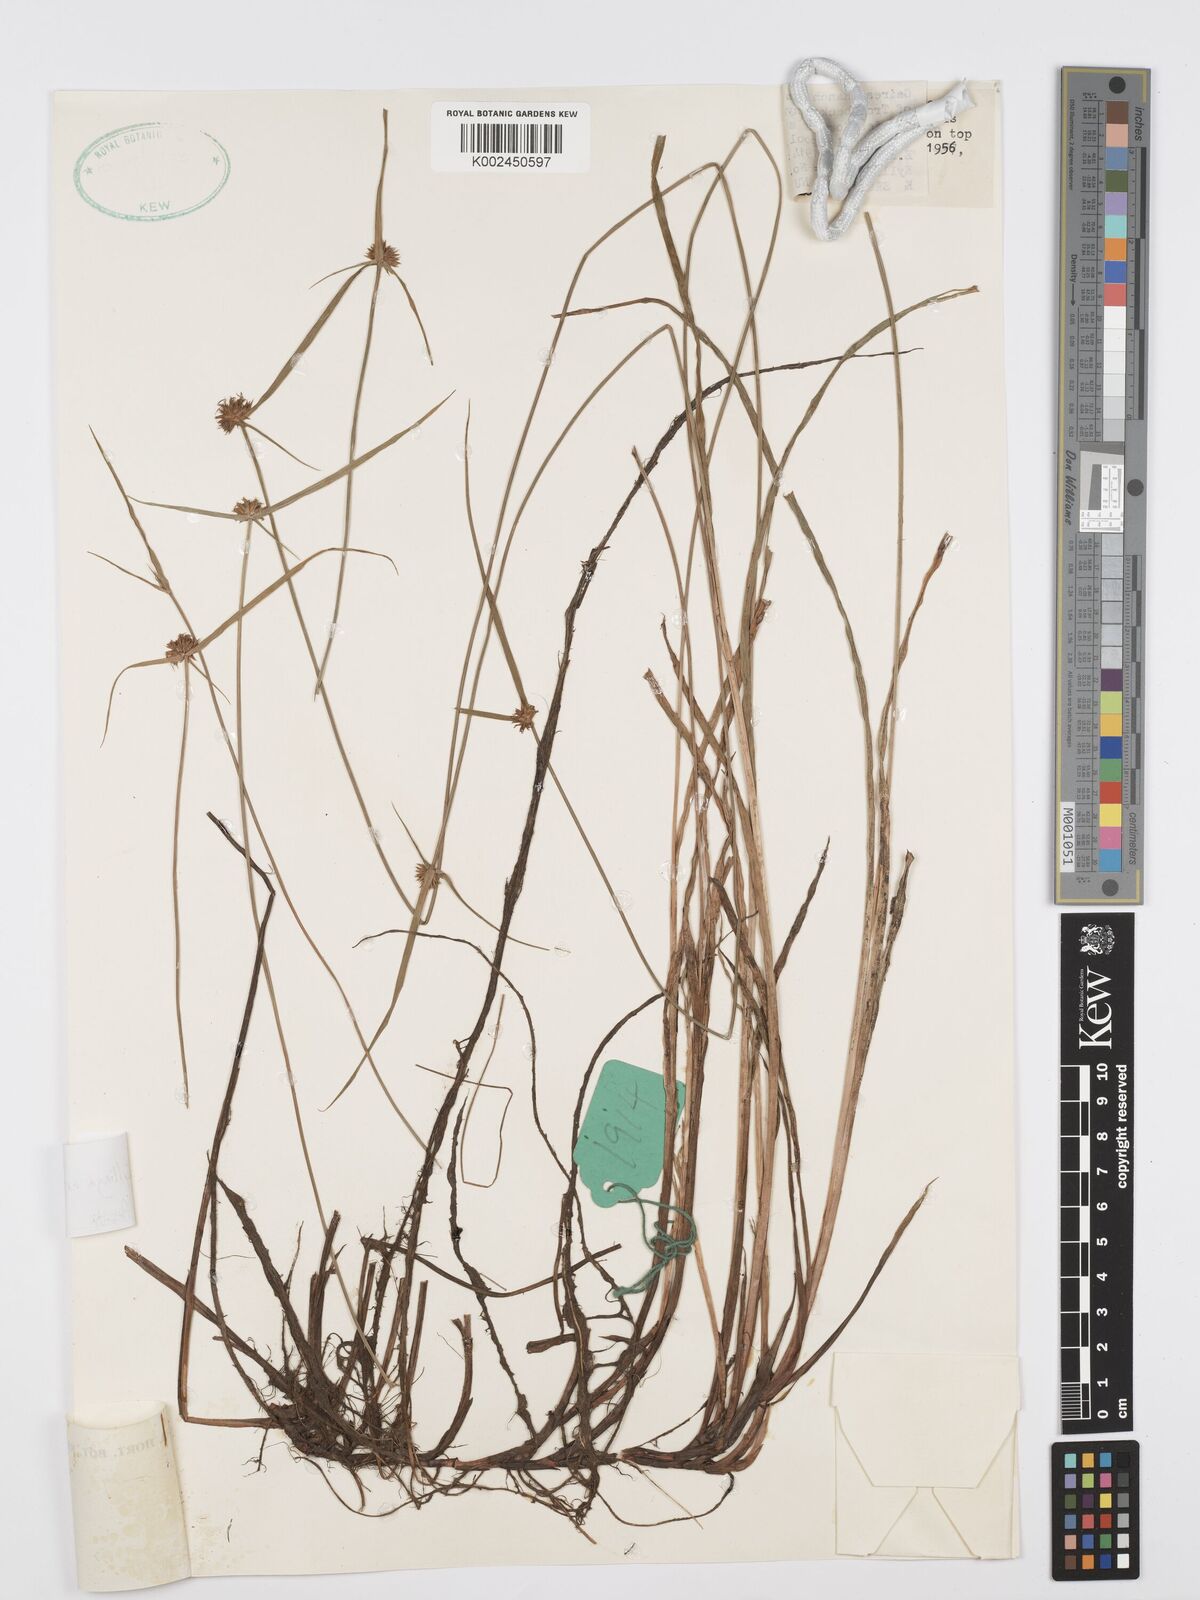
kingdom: Plantae
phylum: Tracheophyta
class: Liliopsida
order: Poales
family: Cyperaceae
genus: Cyperus
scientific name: Cyperus erectus
